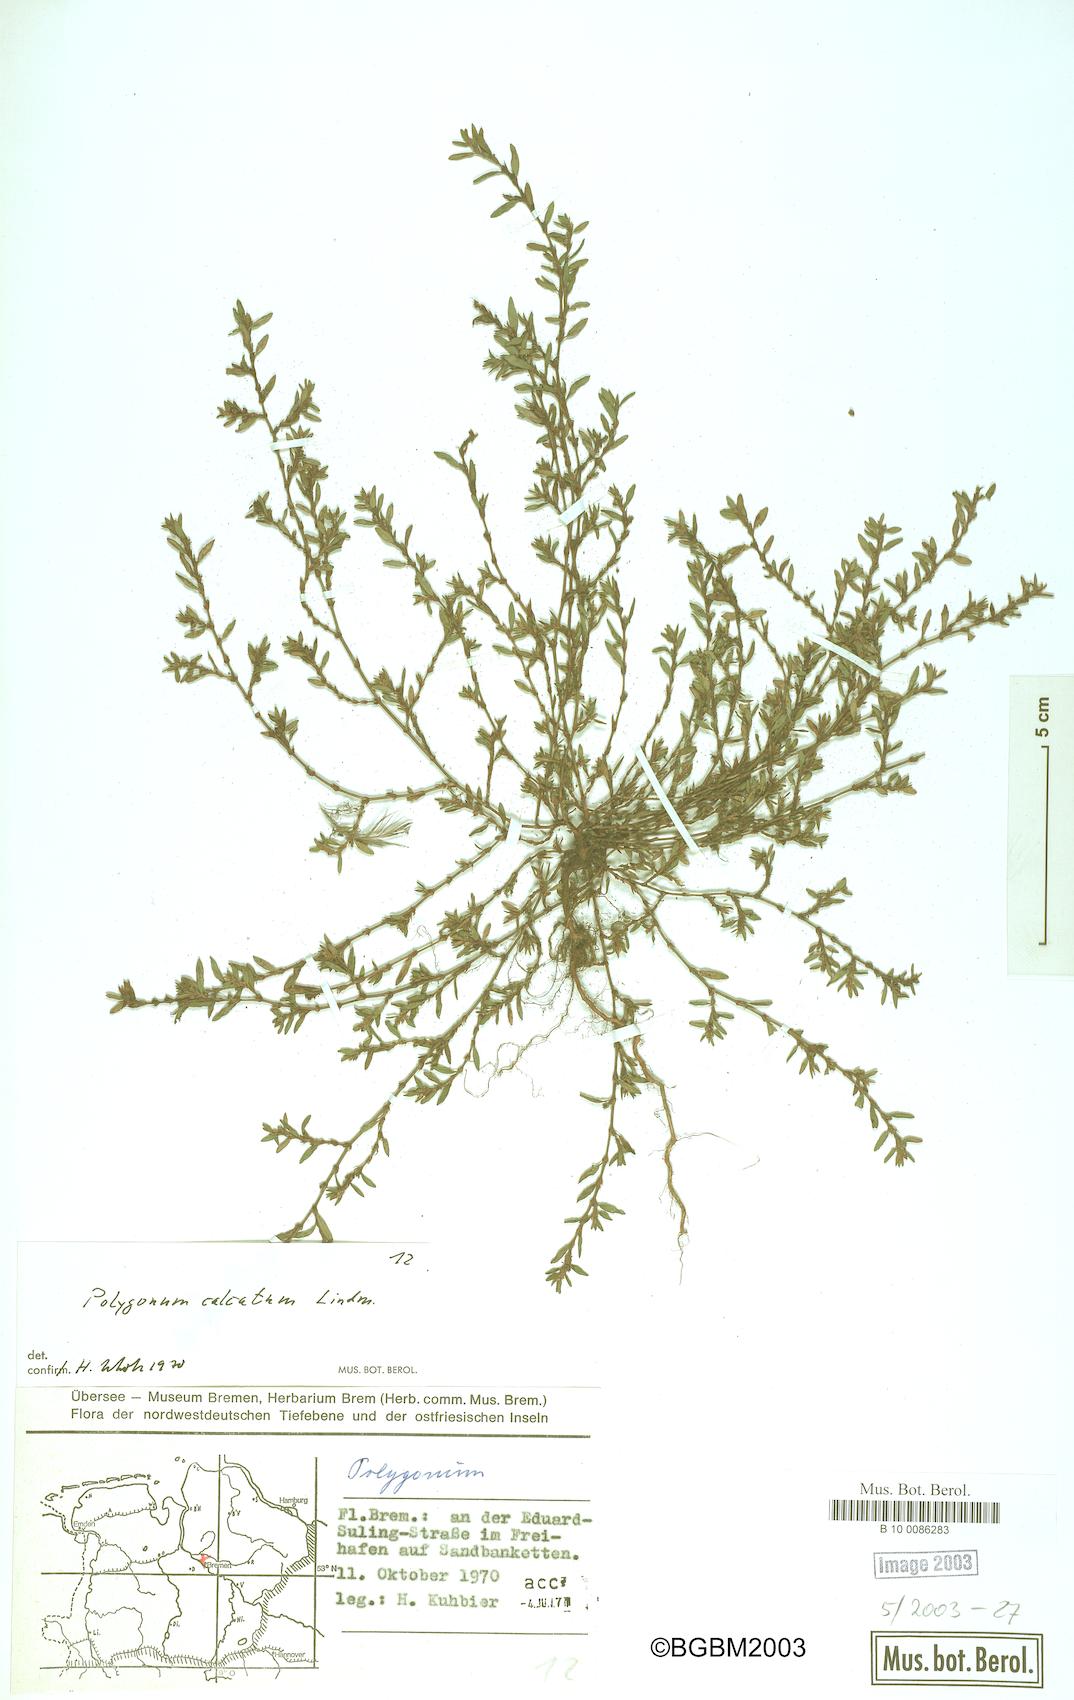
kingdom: Plantae
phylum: Tracheophyta
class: Magnoliopsida
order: Caryophyllales
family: Polygonaceae
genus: Polygonum
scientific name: Polygonum arenastrum
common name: Equal-leaved knotgrass
